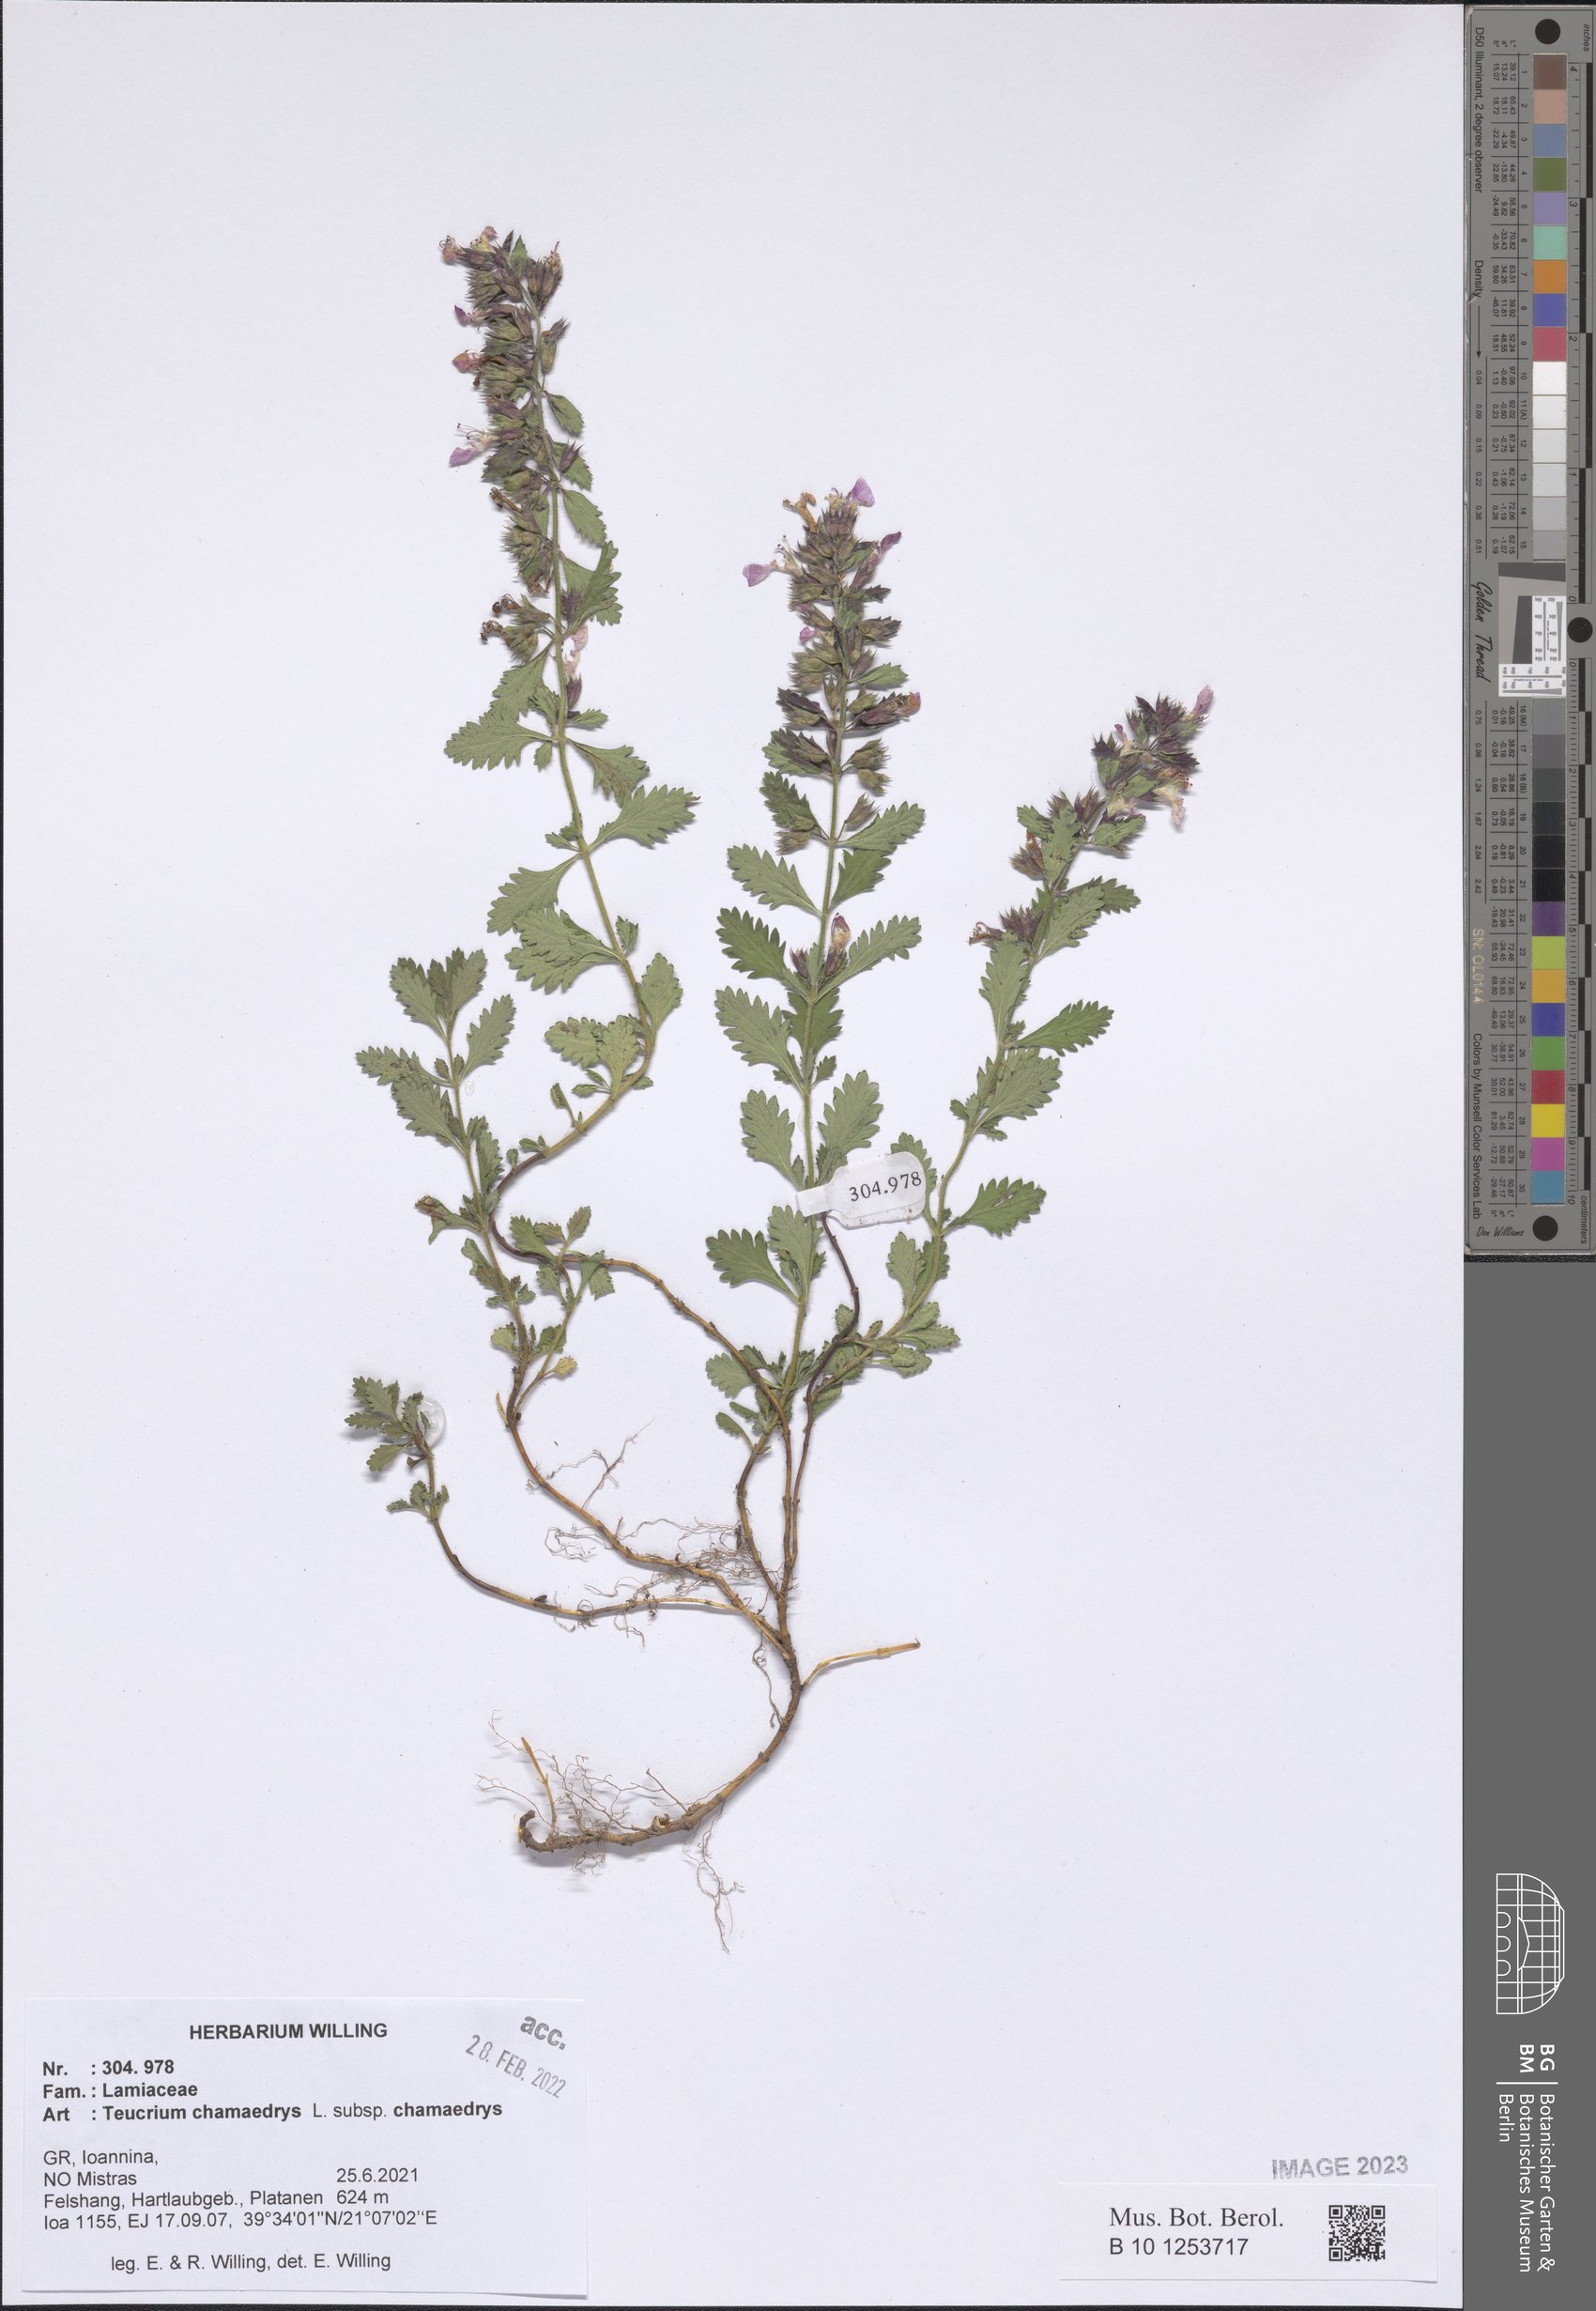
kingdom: Plantae
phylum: Tracheophyta
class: Magnoliopsida
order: Lamiales
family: Lamiaceae
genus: Teucrium
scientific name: Teucrium chamaedrys
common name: Wall germander
